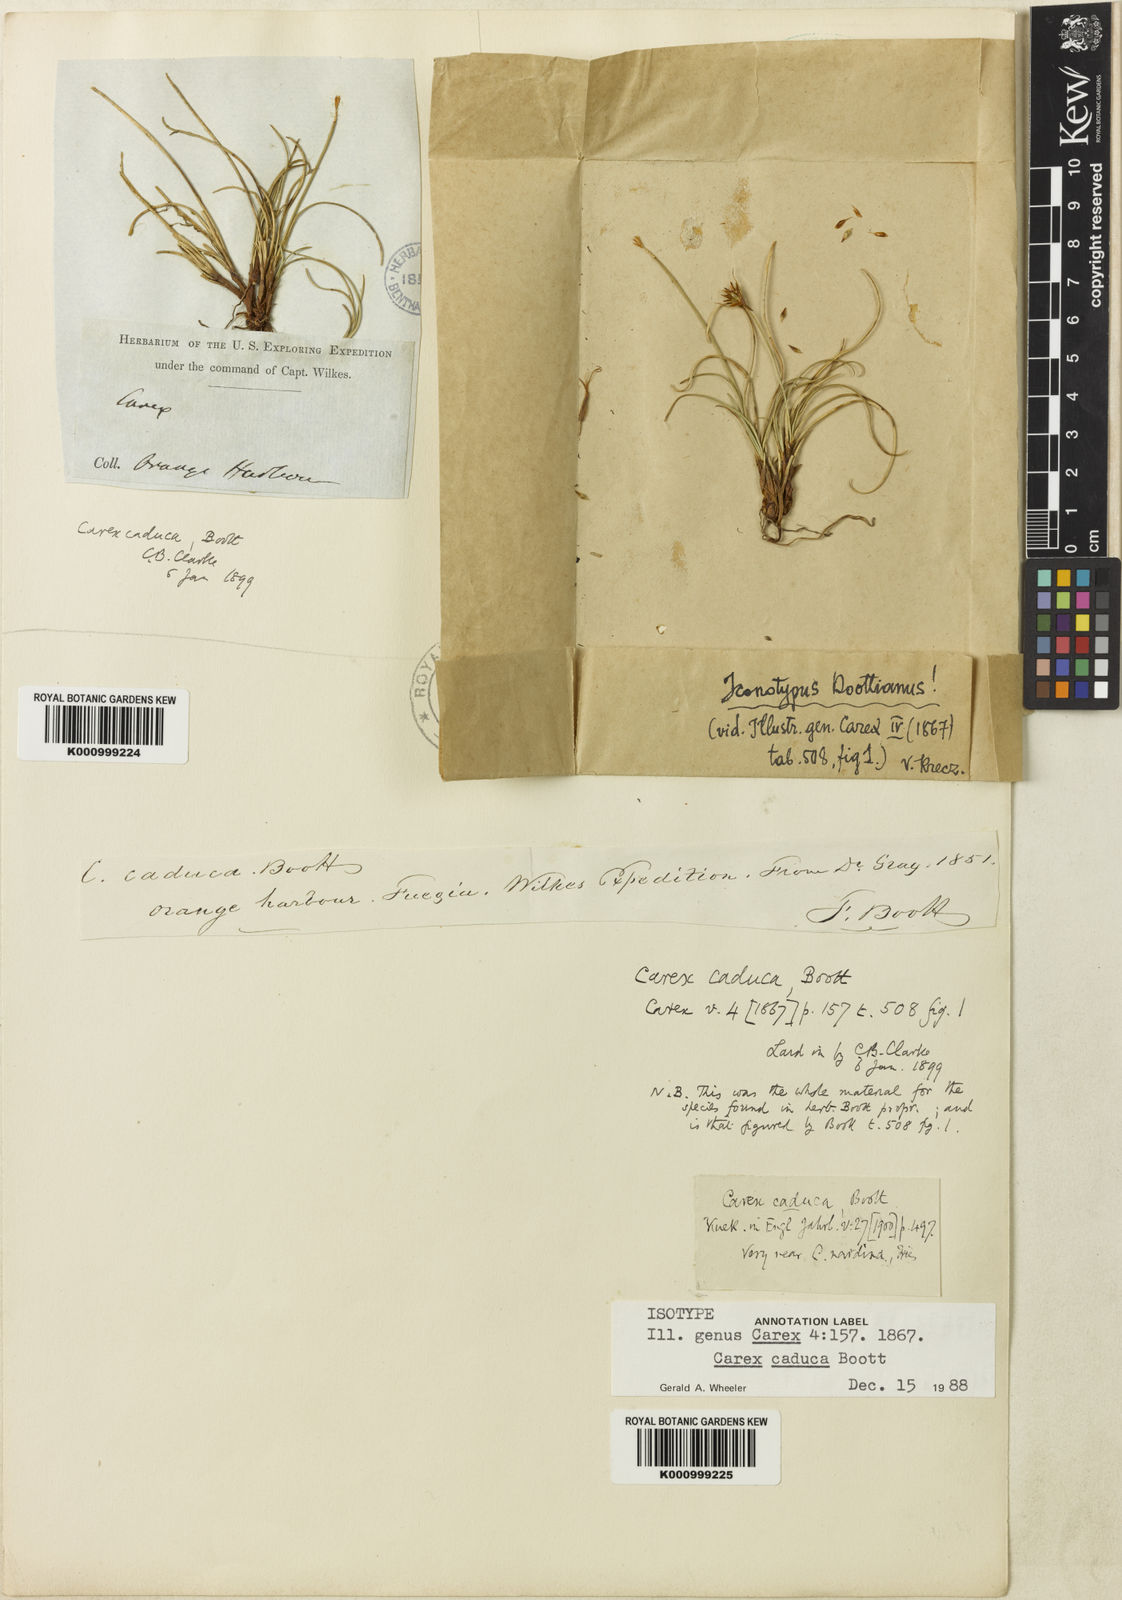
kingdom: Plantae
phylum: Tracheophyta
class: Liliopsida
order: Poales
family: Cyperaceae
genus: Carex
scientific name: Carex caduca
